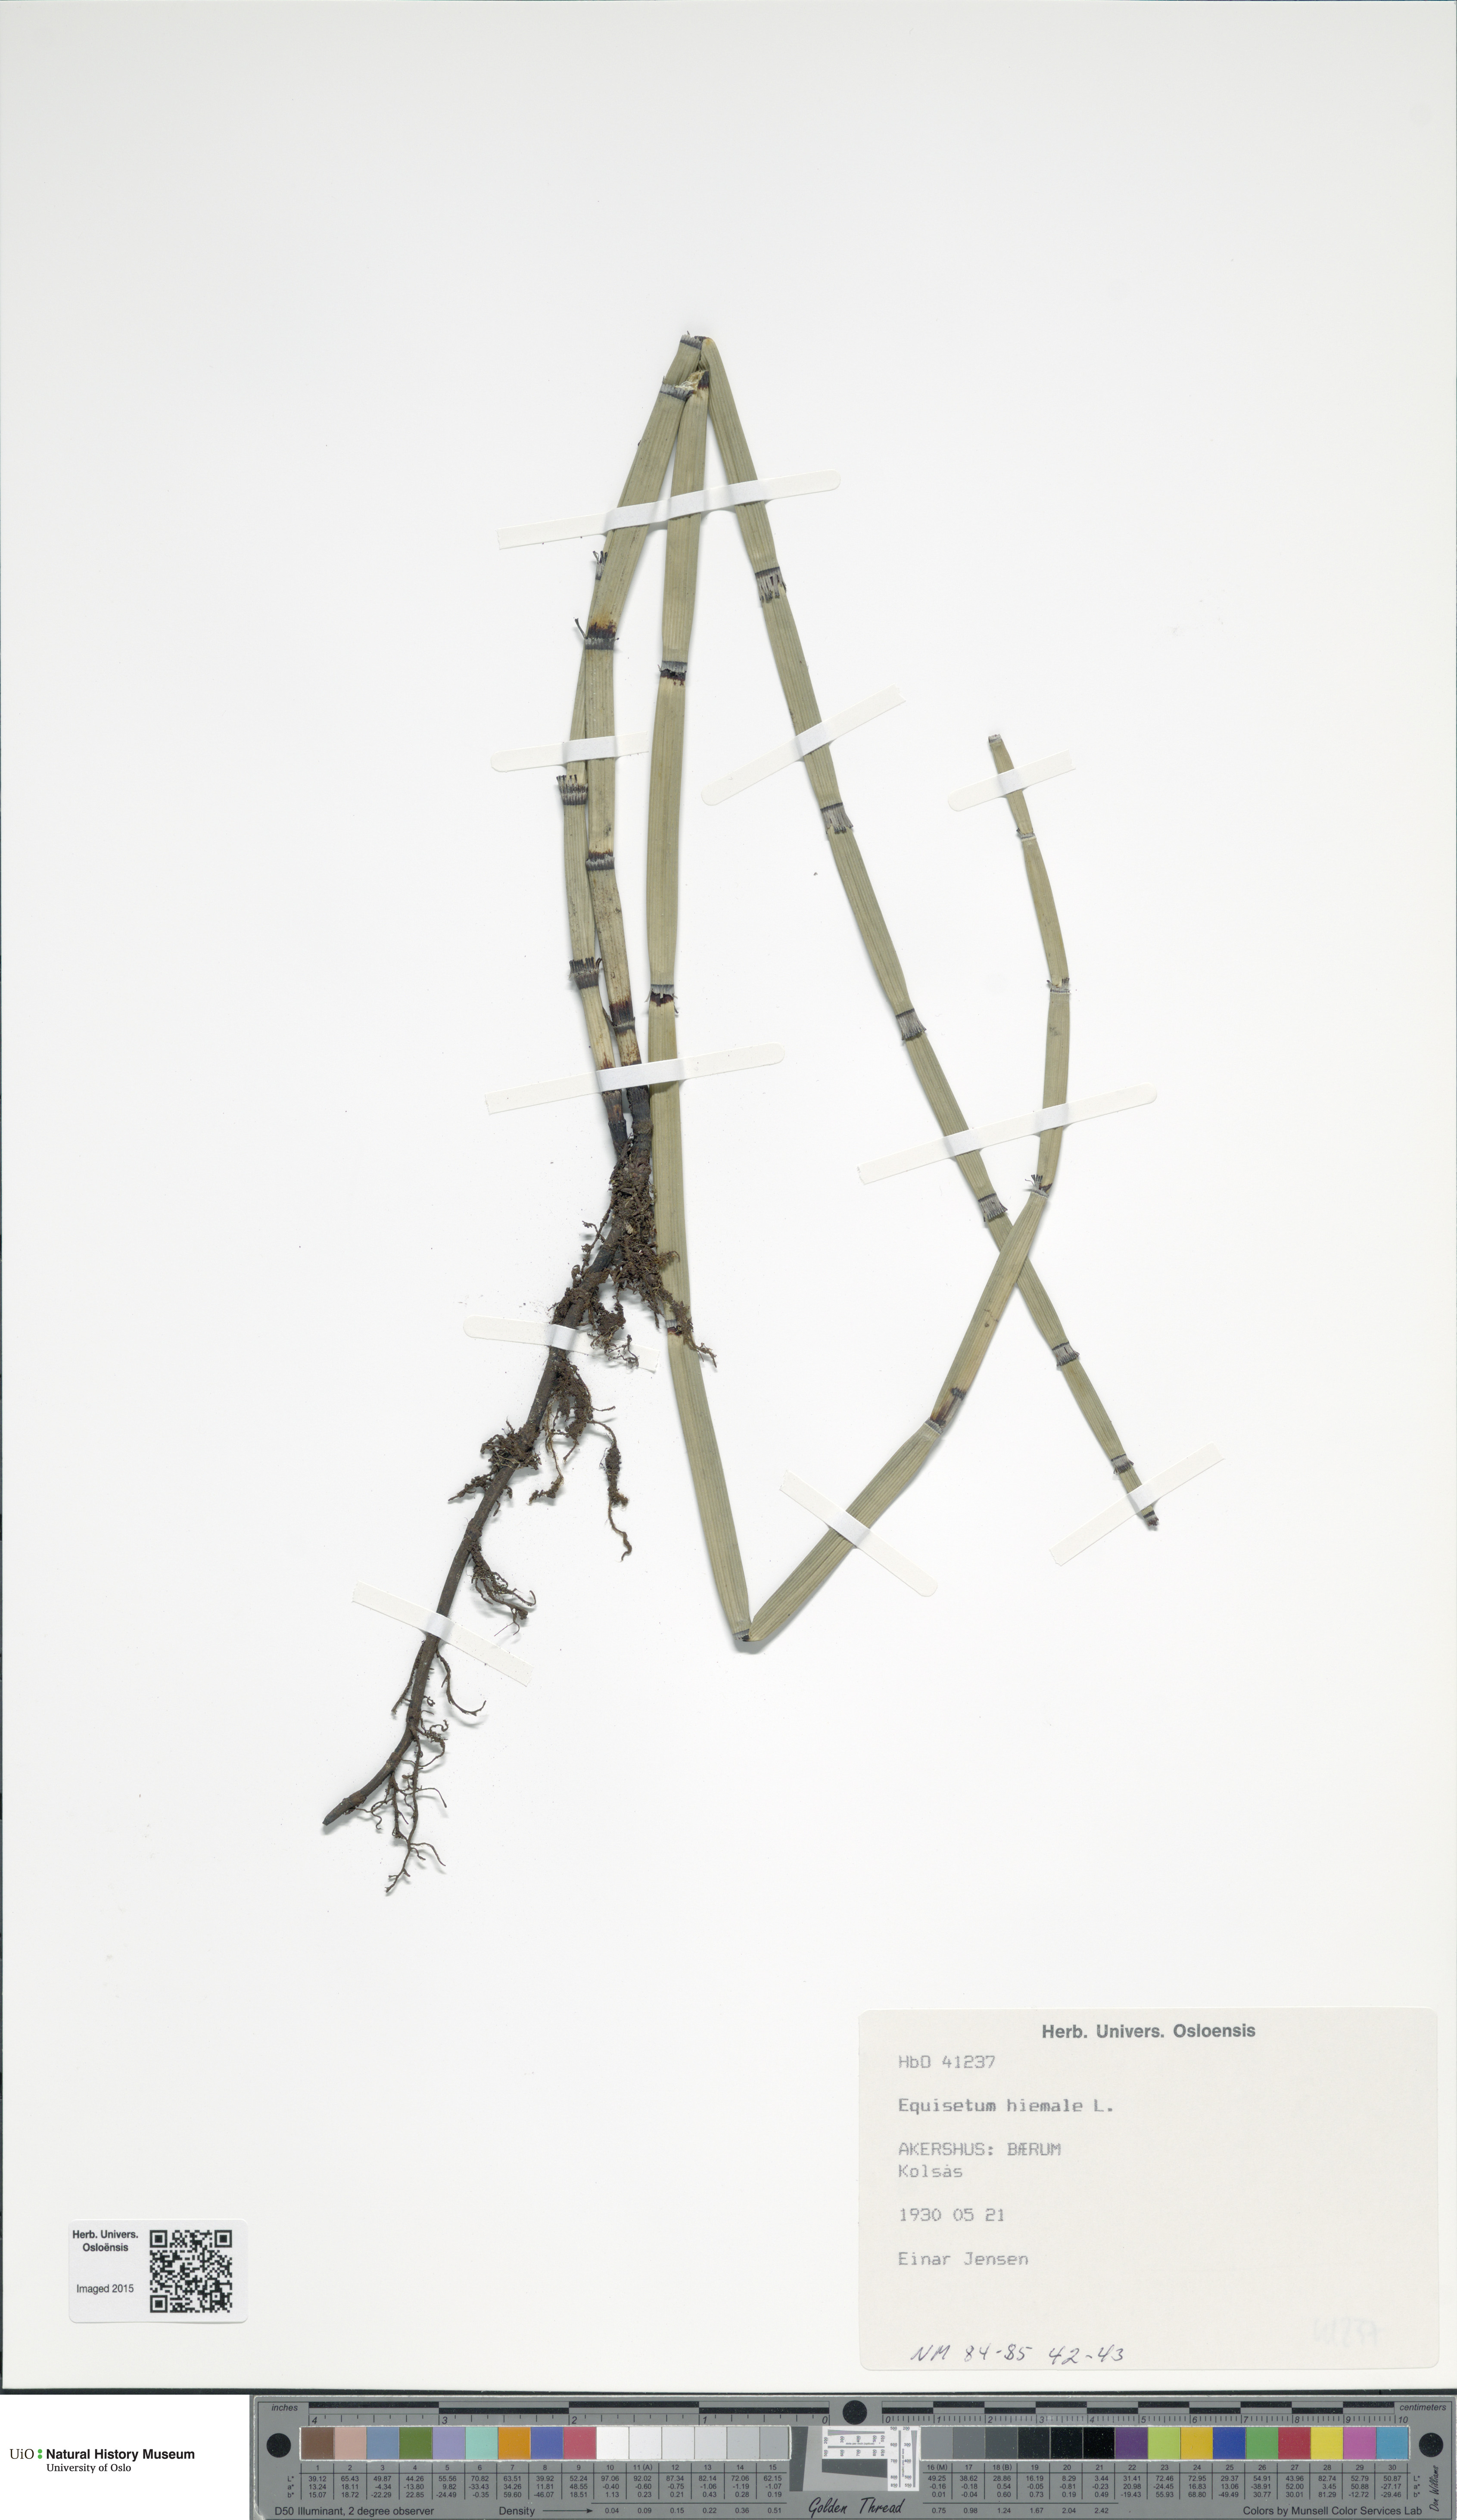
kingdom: Plantae
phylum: Tracheophyta
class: Polypodiopsida
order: Equisetales
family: Equisetaceae
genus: Equisetum
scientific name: Equisetum hyemale
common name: Rough horsetail
